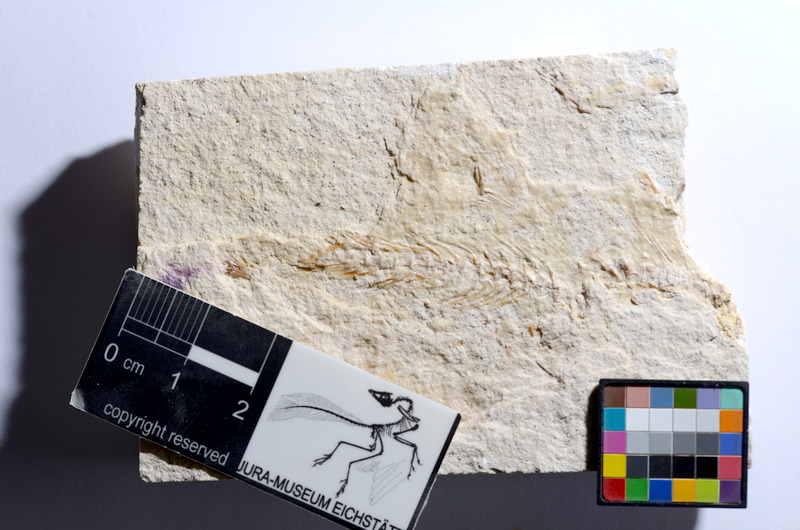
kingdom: Animalia
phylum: Chordata
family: Ascalaboidae
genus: Tharsis
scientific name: Tharsis dubius
